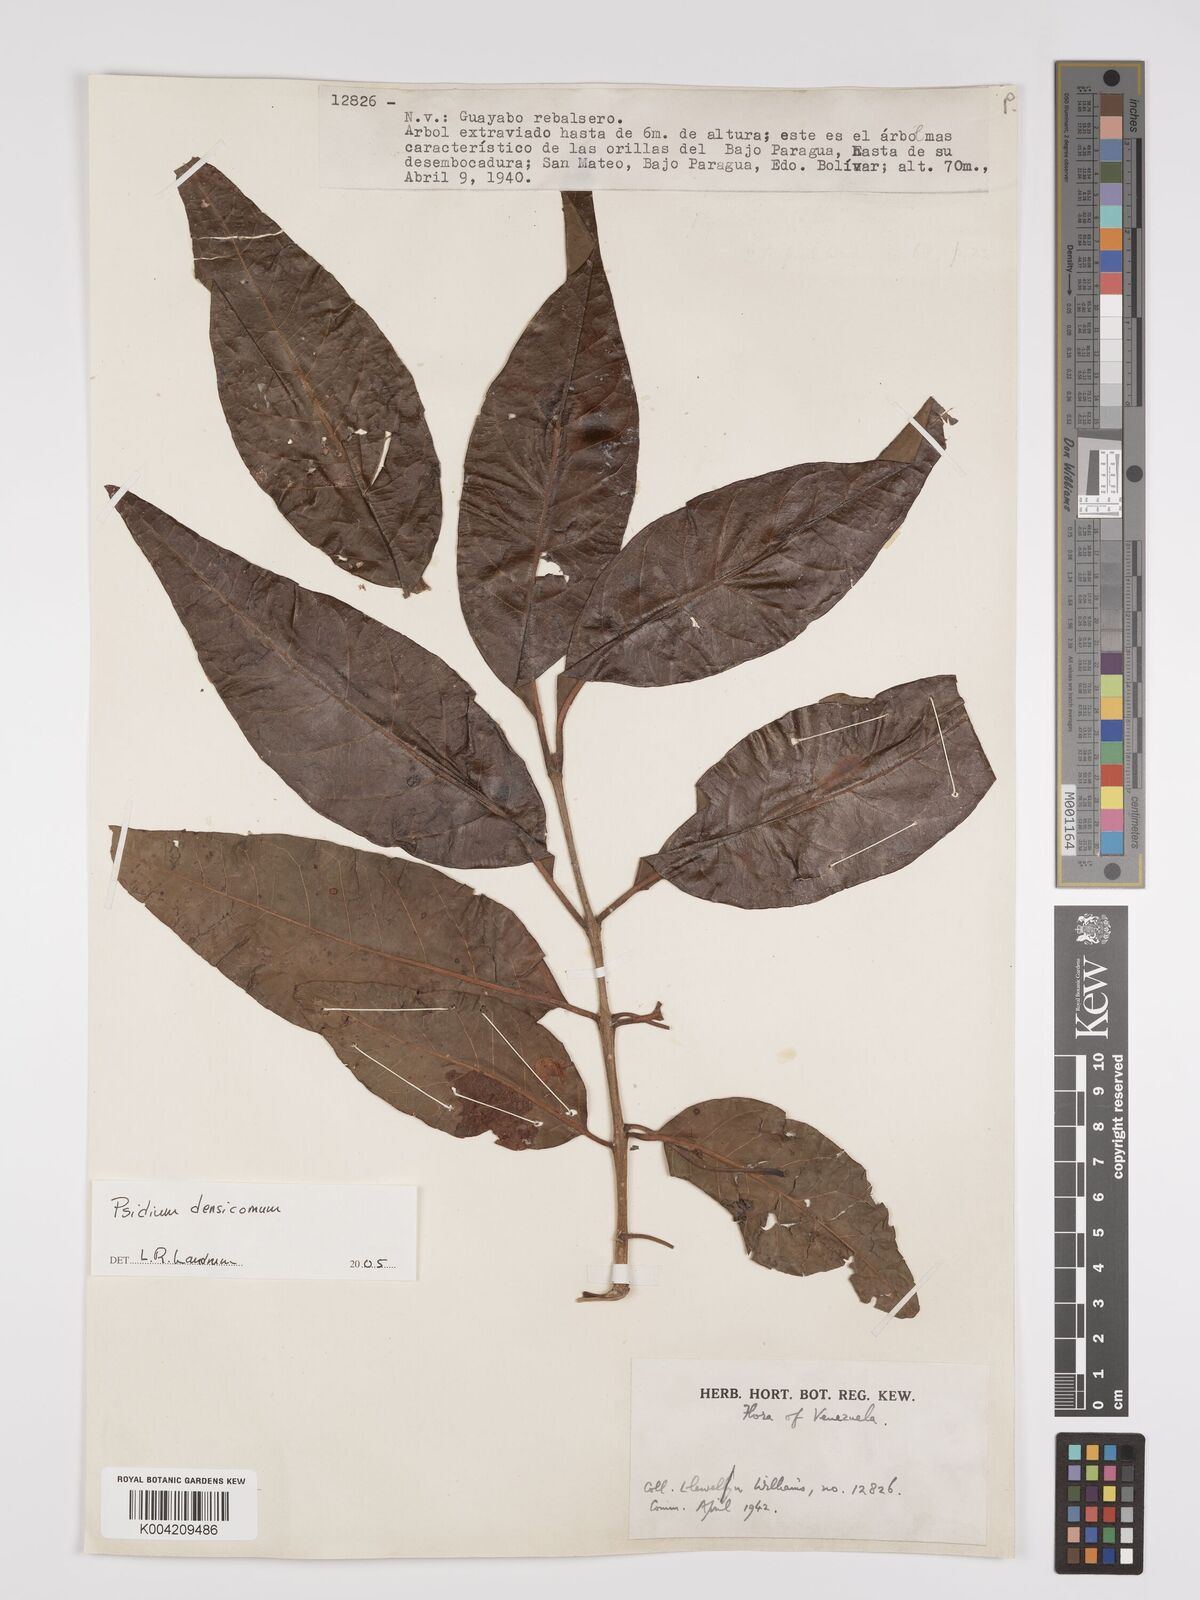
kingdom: Plantae
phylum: Tracheophyta
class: Magnoliopsida
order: Myrtales
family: Myrtaceae
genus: Psidium
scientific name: Psidium densicomum
